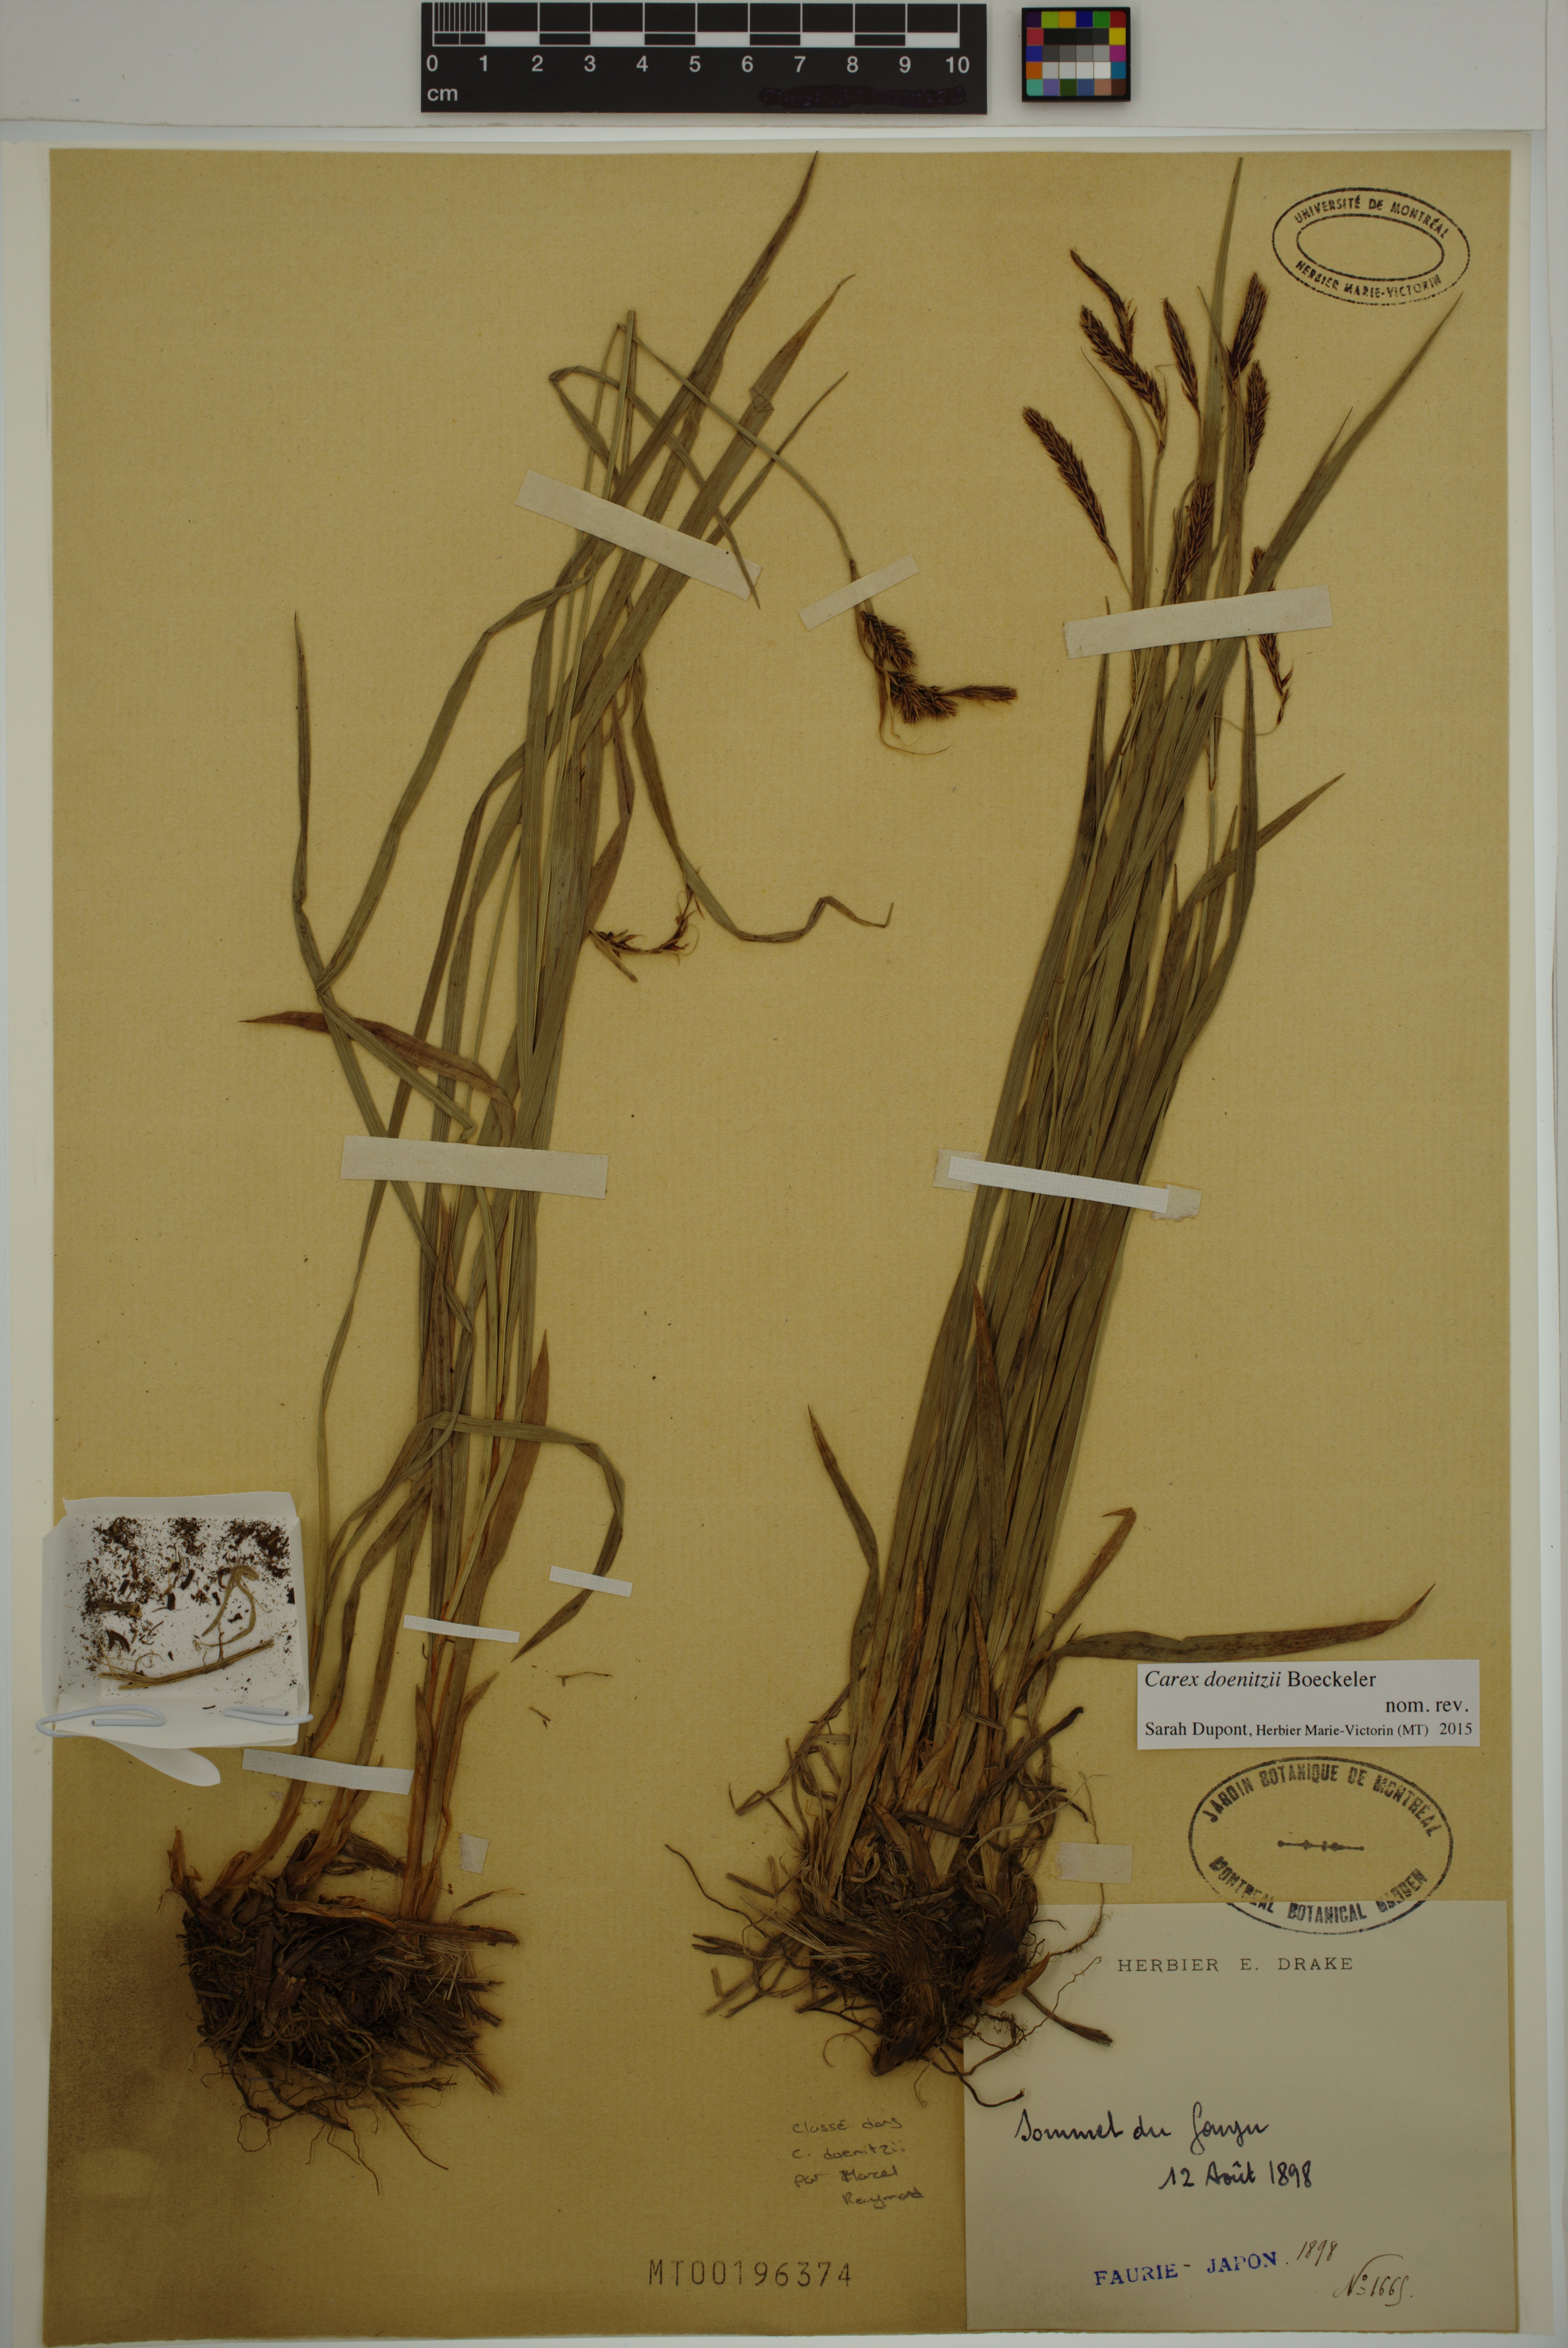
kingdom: Plantae
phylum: Tracheophyta
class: Liliopsida
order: Poales
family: Cyperaceae
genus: Carex
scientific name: Carex doenitzii
